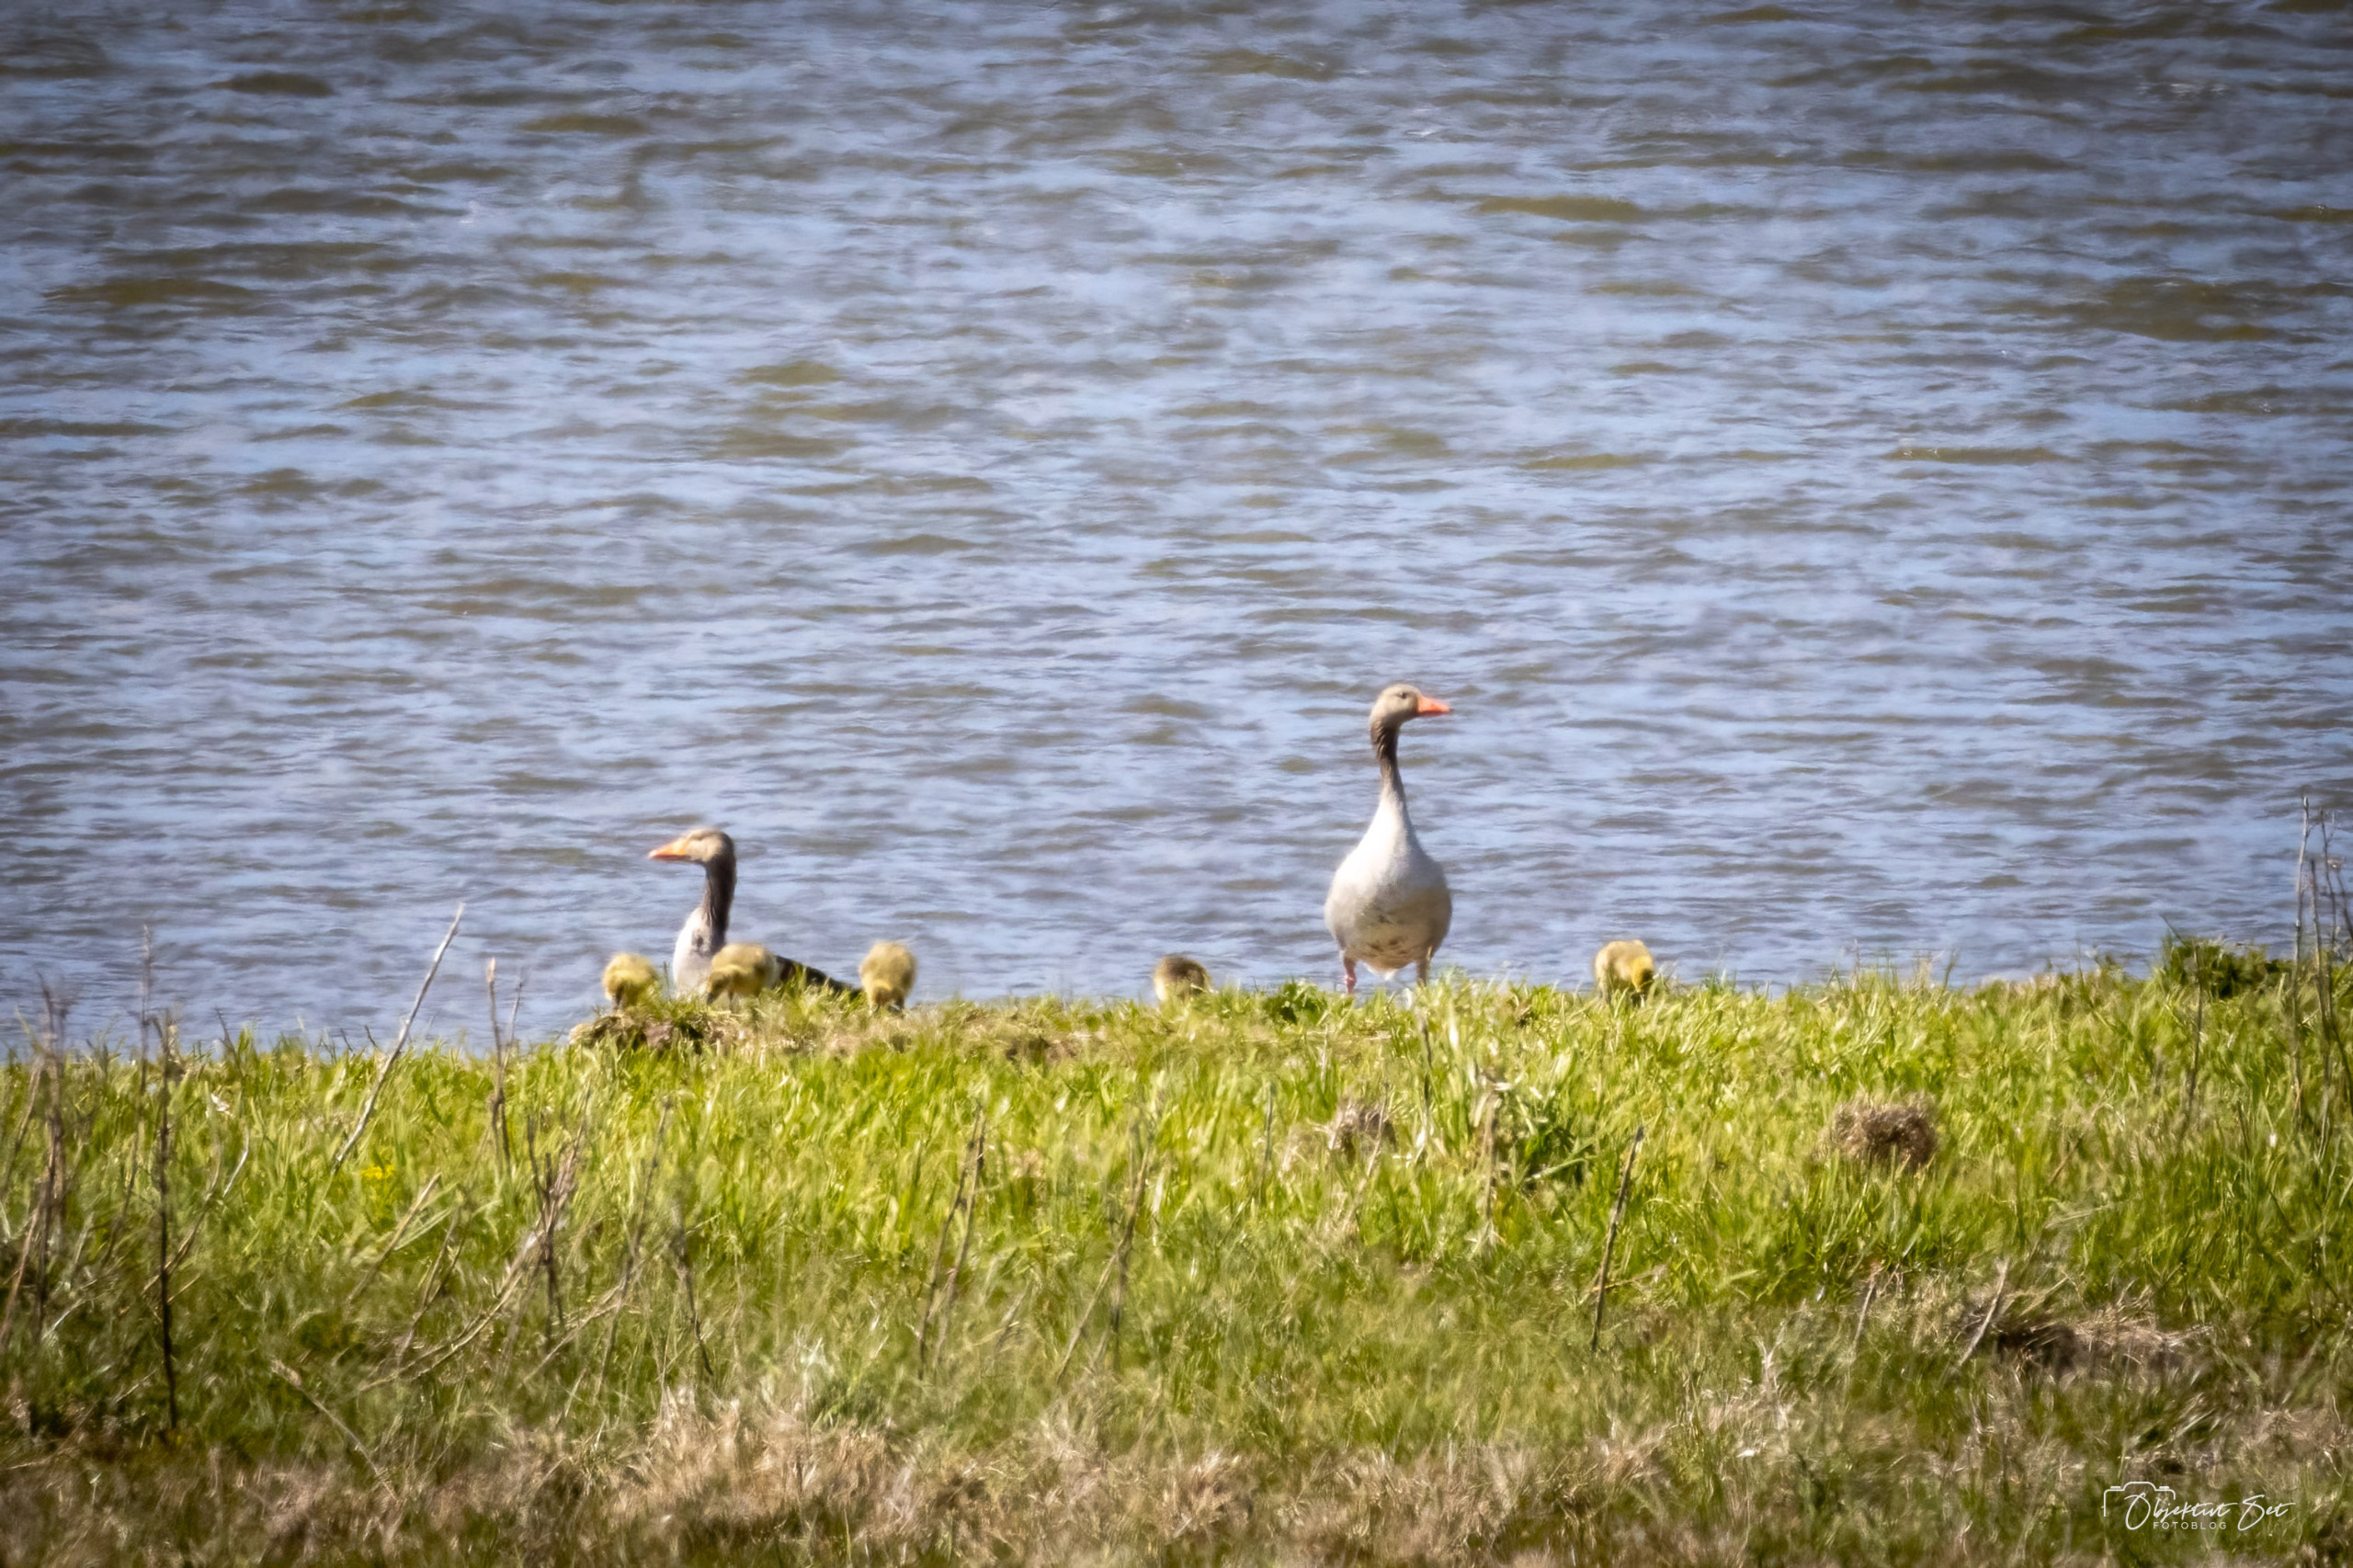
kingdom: Animalia
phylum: Chordata
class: Aves
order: Anseriformes
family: Anatidae
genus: Anser
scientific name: Anser anser
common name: Grågås
